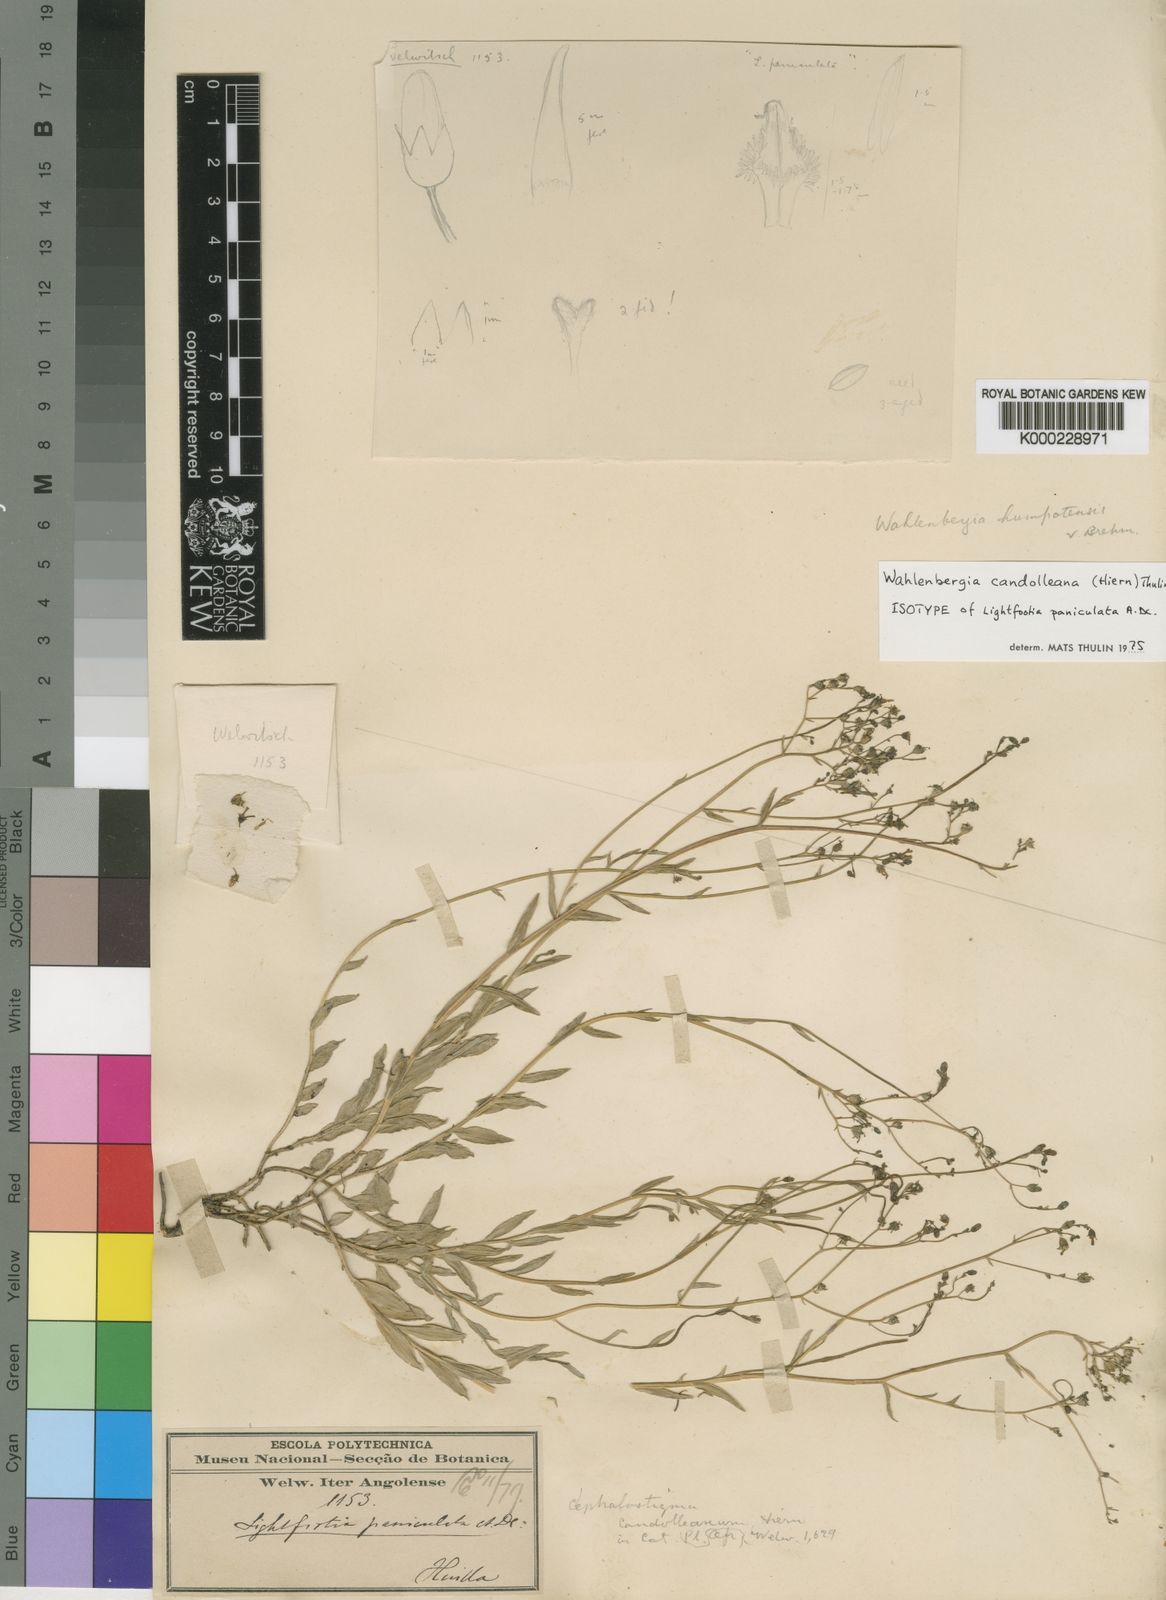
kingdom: Plantae
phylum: Tracheophyta
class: Magnoliopsida
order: Asterales
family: Campanulaceae
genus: Wahlenbergia
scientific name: Wahlenbergia candolleana
